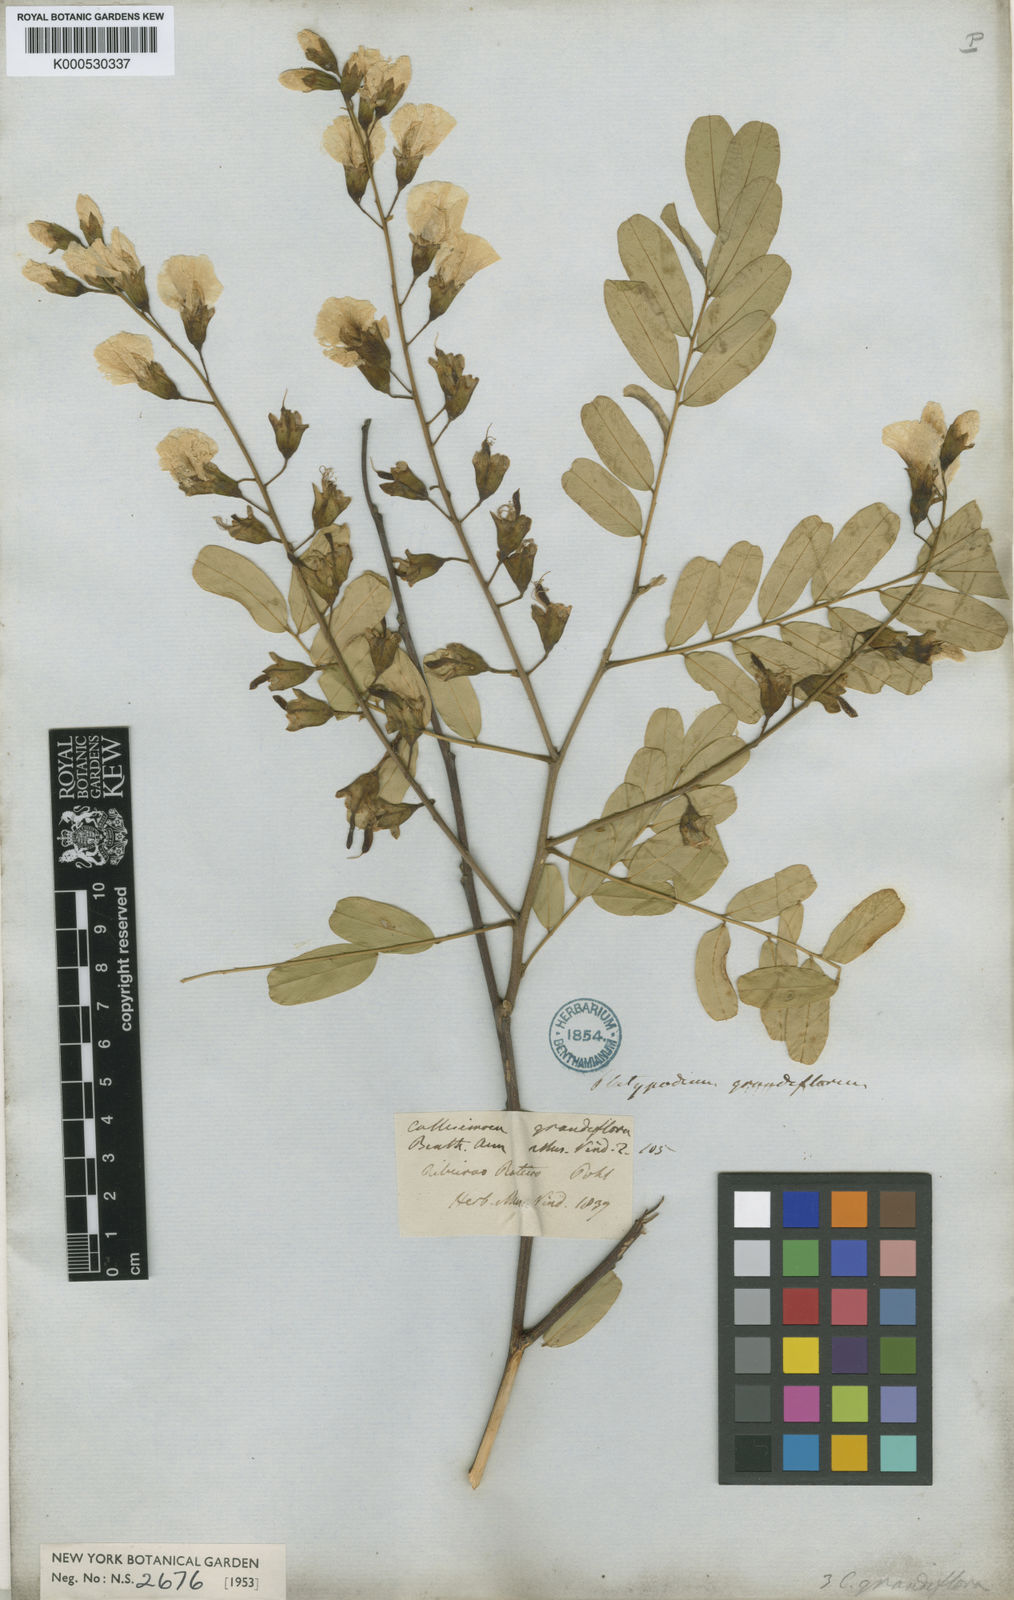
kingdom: Plantae
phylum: Tracheophyta
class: Magnoliopsida
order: Fabales
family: Fabaceae
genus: Platypodium
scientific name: Platypodium elegans
